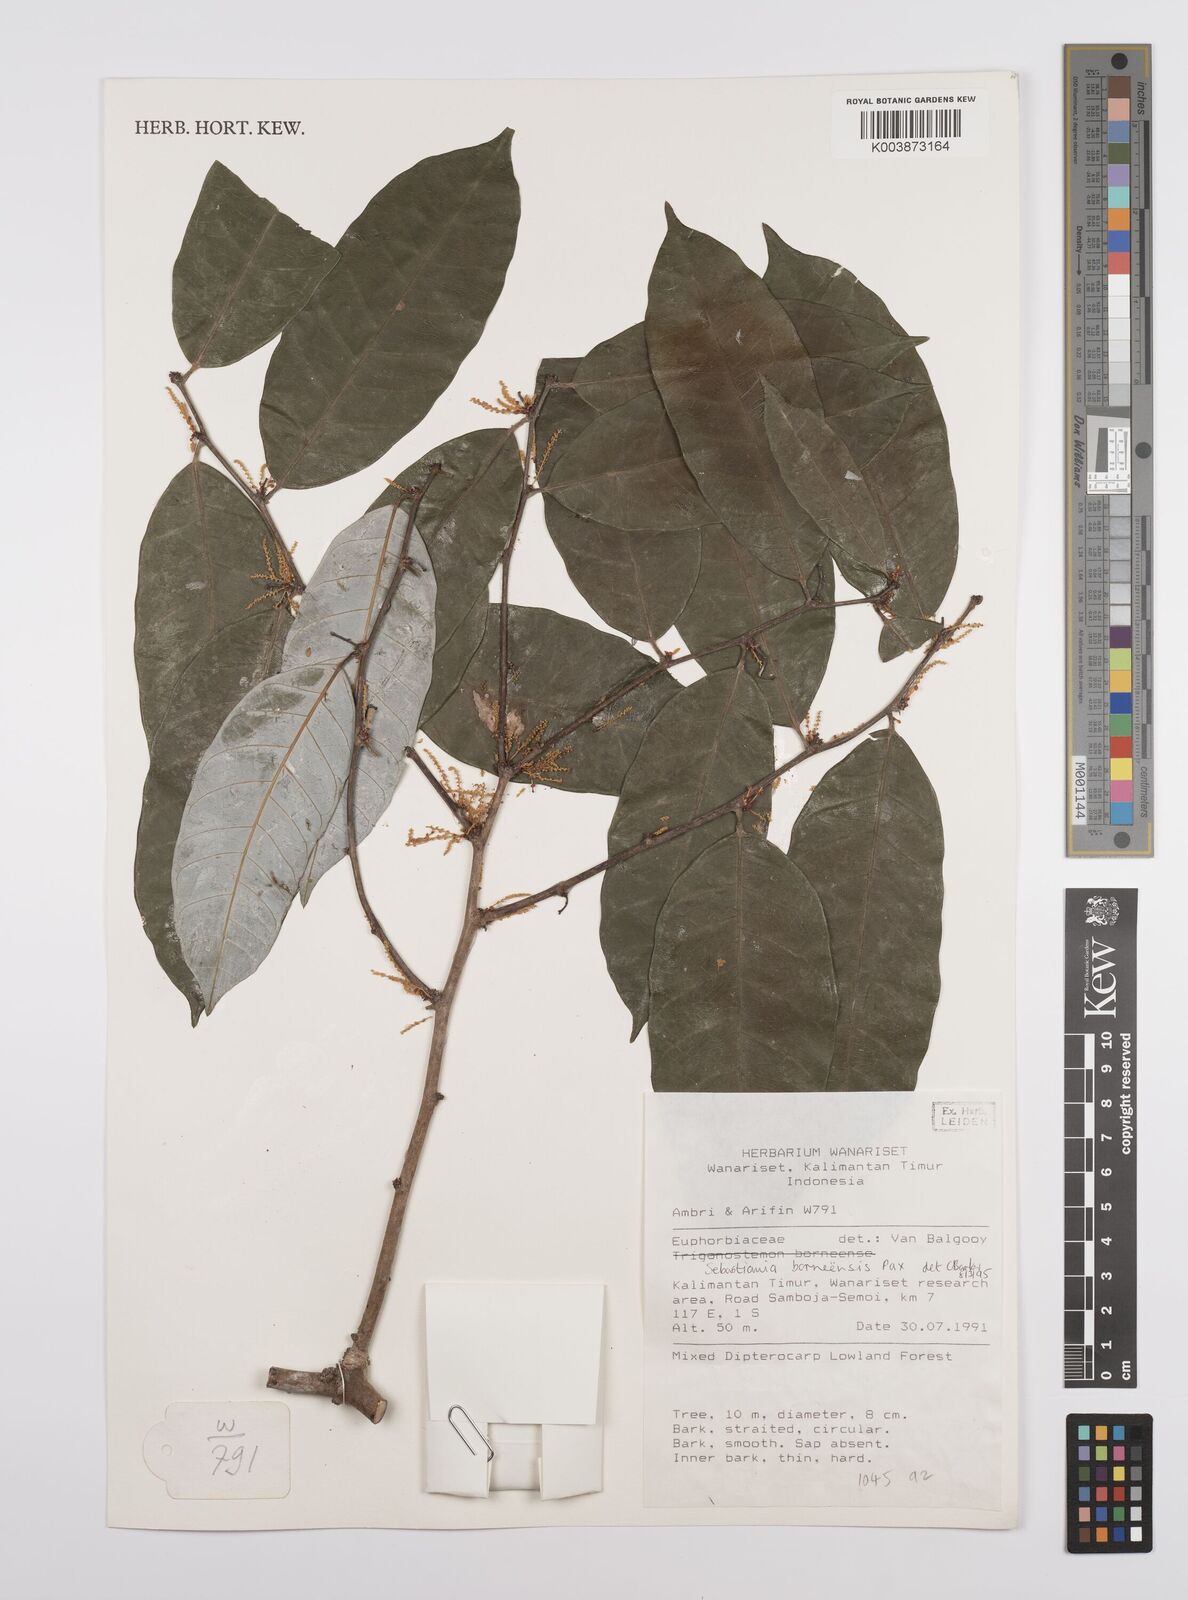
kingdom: Plantae
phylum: Tracheophyta
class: Magnoliopsida
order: Malpighiales
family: Euphorbiaceae
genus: Gymnanthes
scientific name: Gymnanthes borneensis
